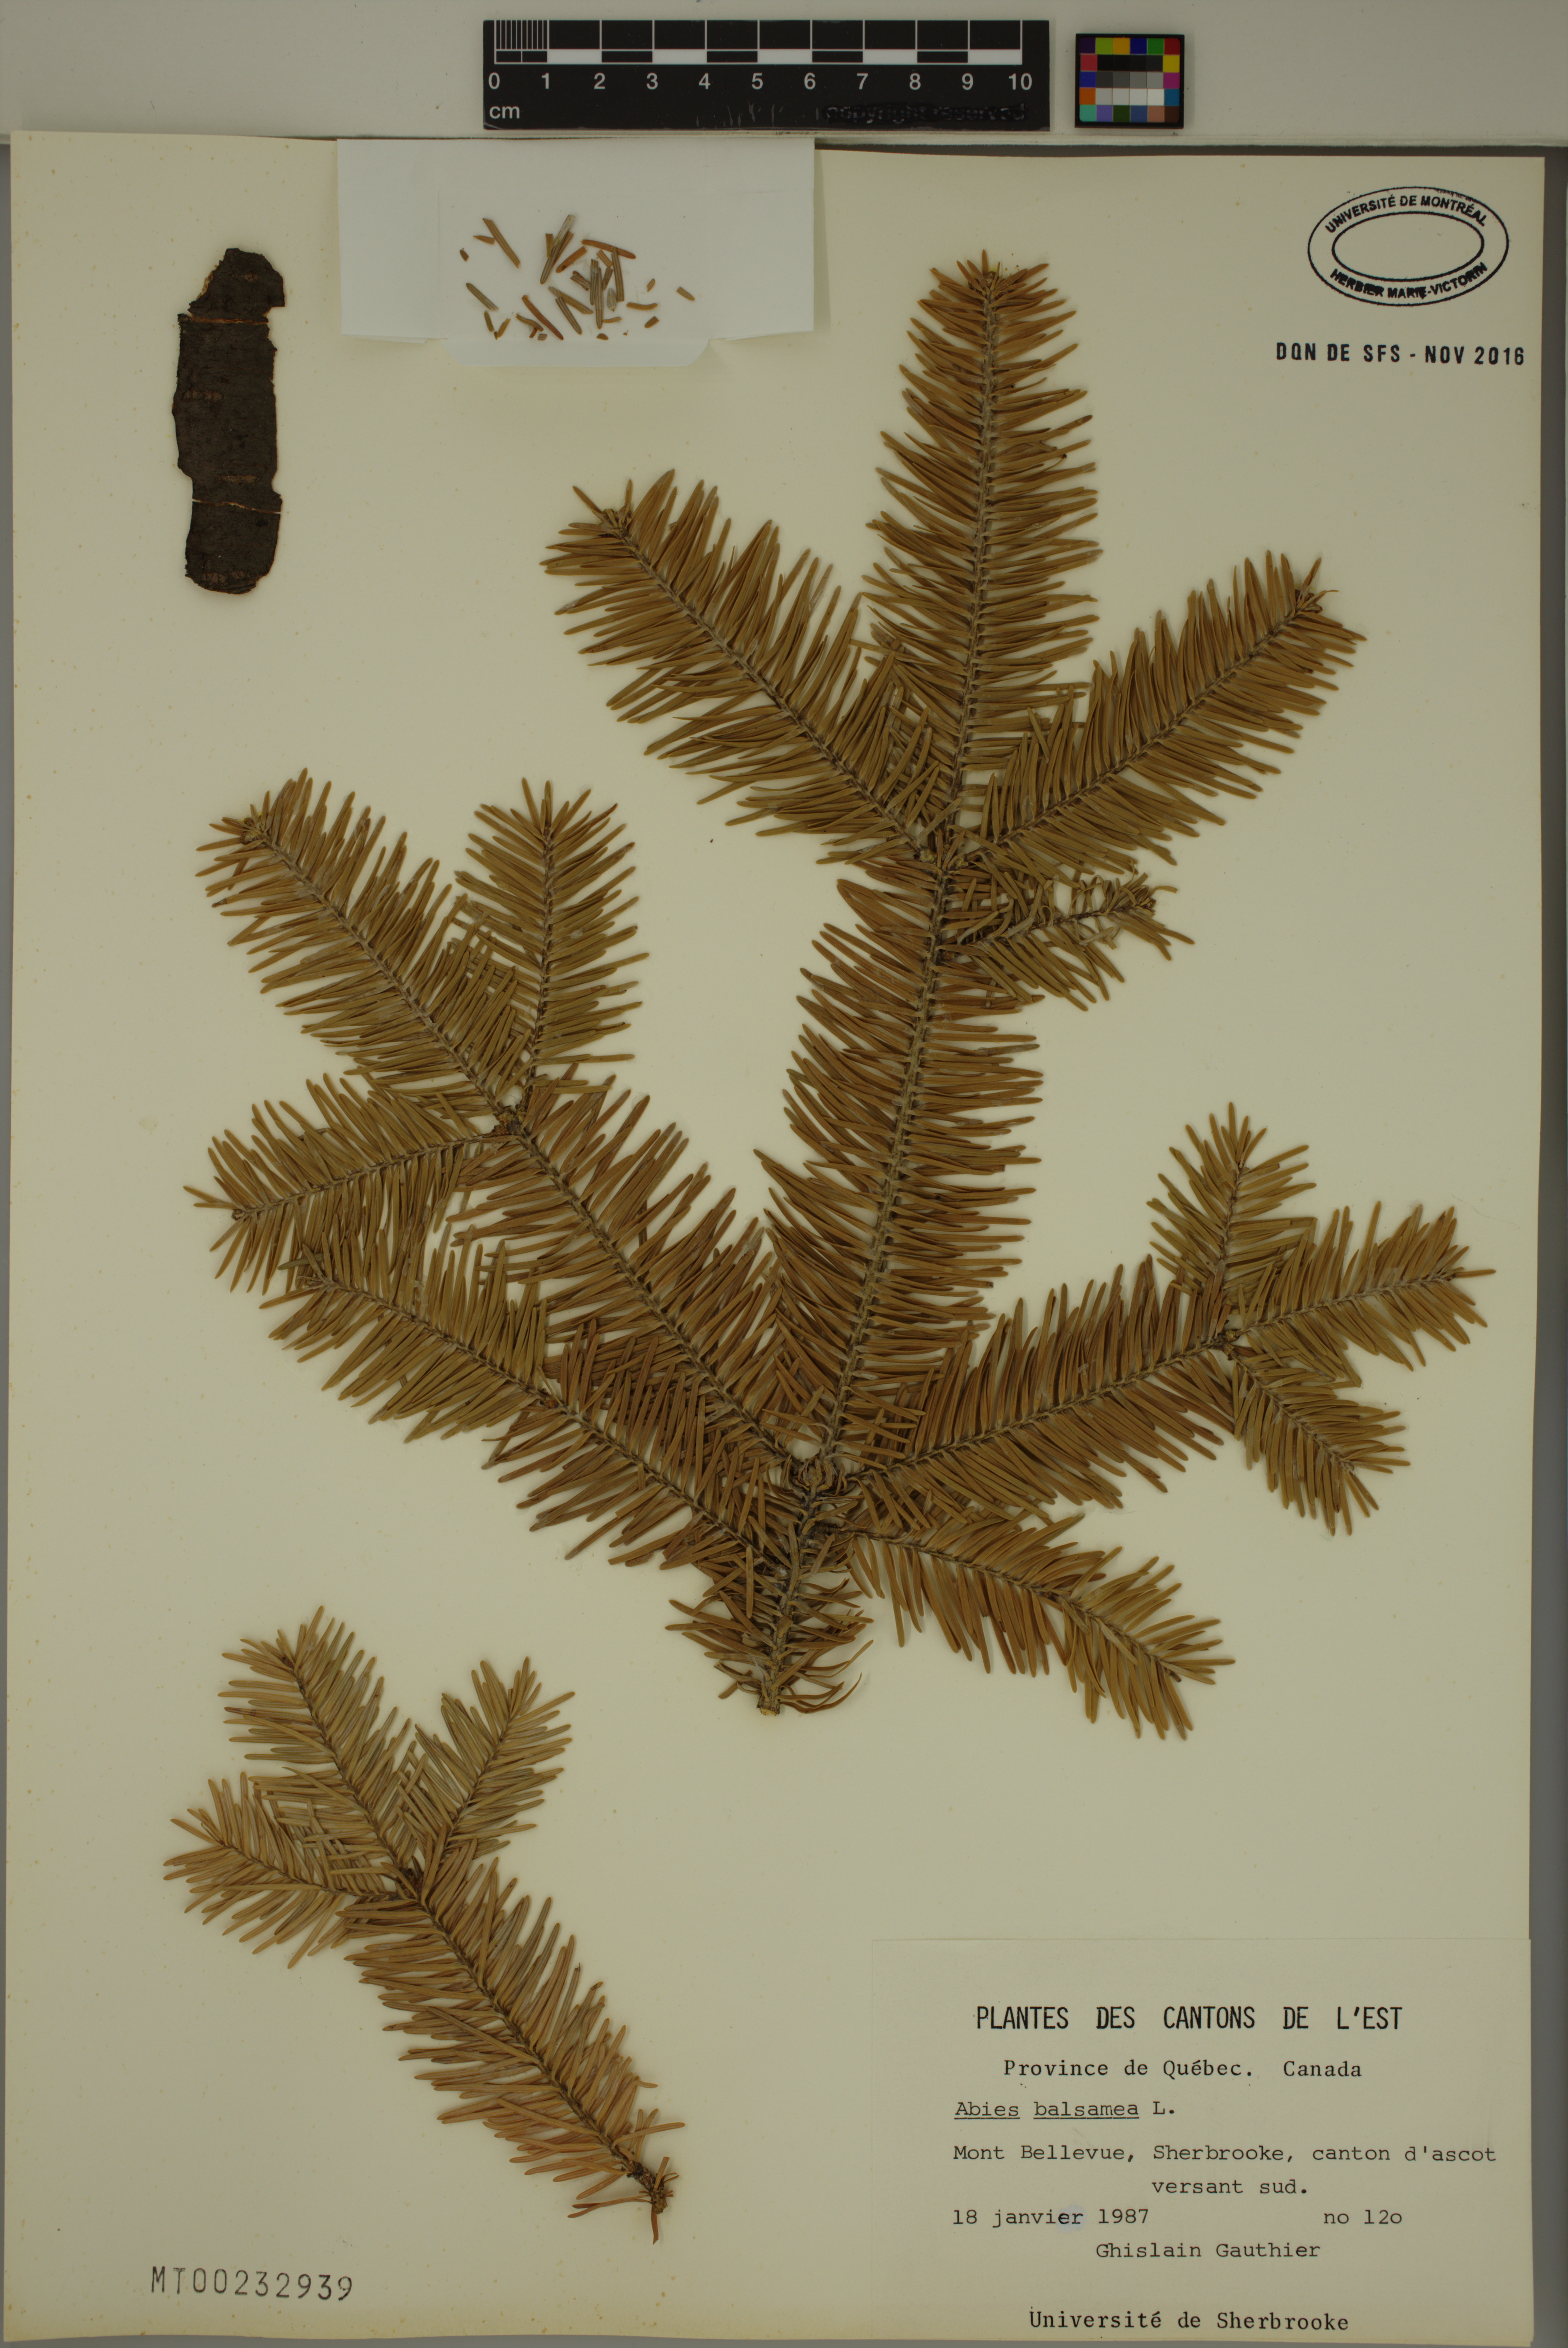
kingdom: Plantae
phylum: Tracheophyta
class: Pinopsida
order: Pinales
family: Pinaceae
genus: Abies
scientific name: Abies balsamea
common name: Balsam fir
